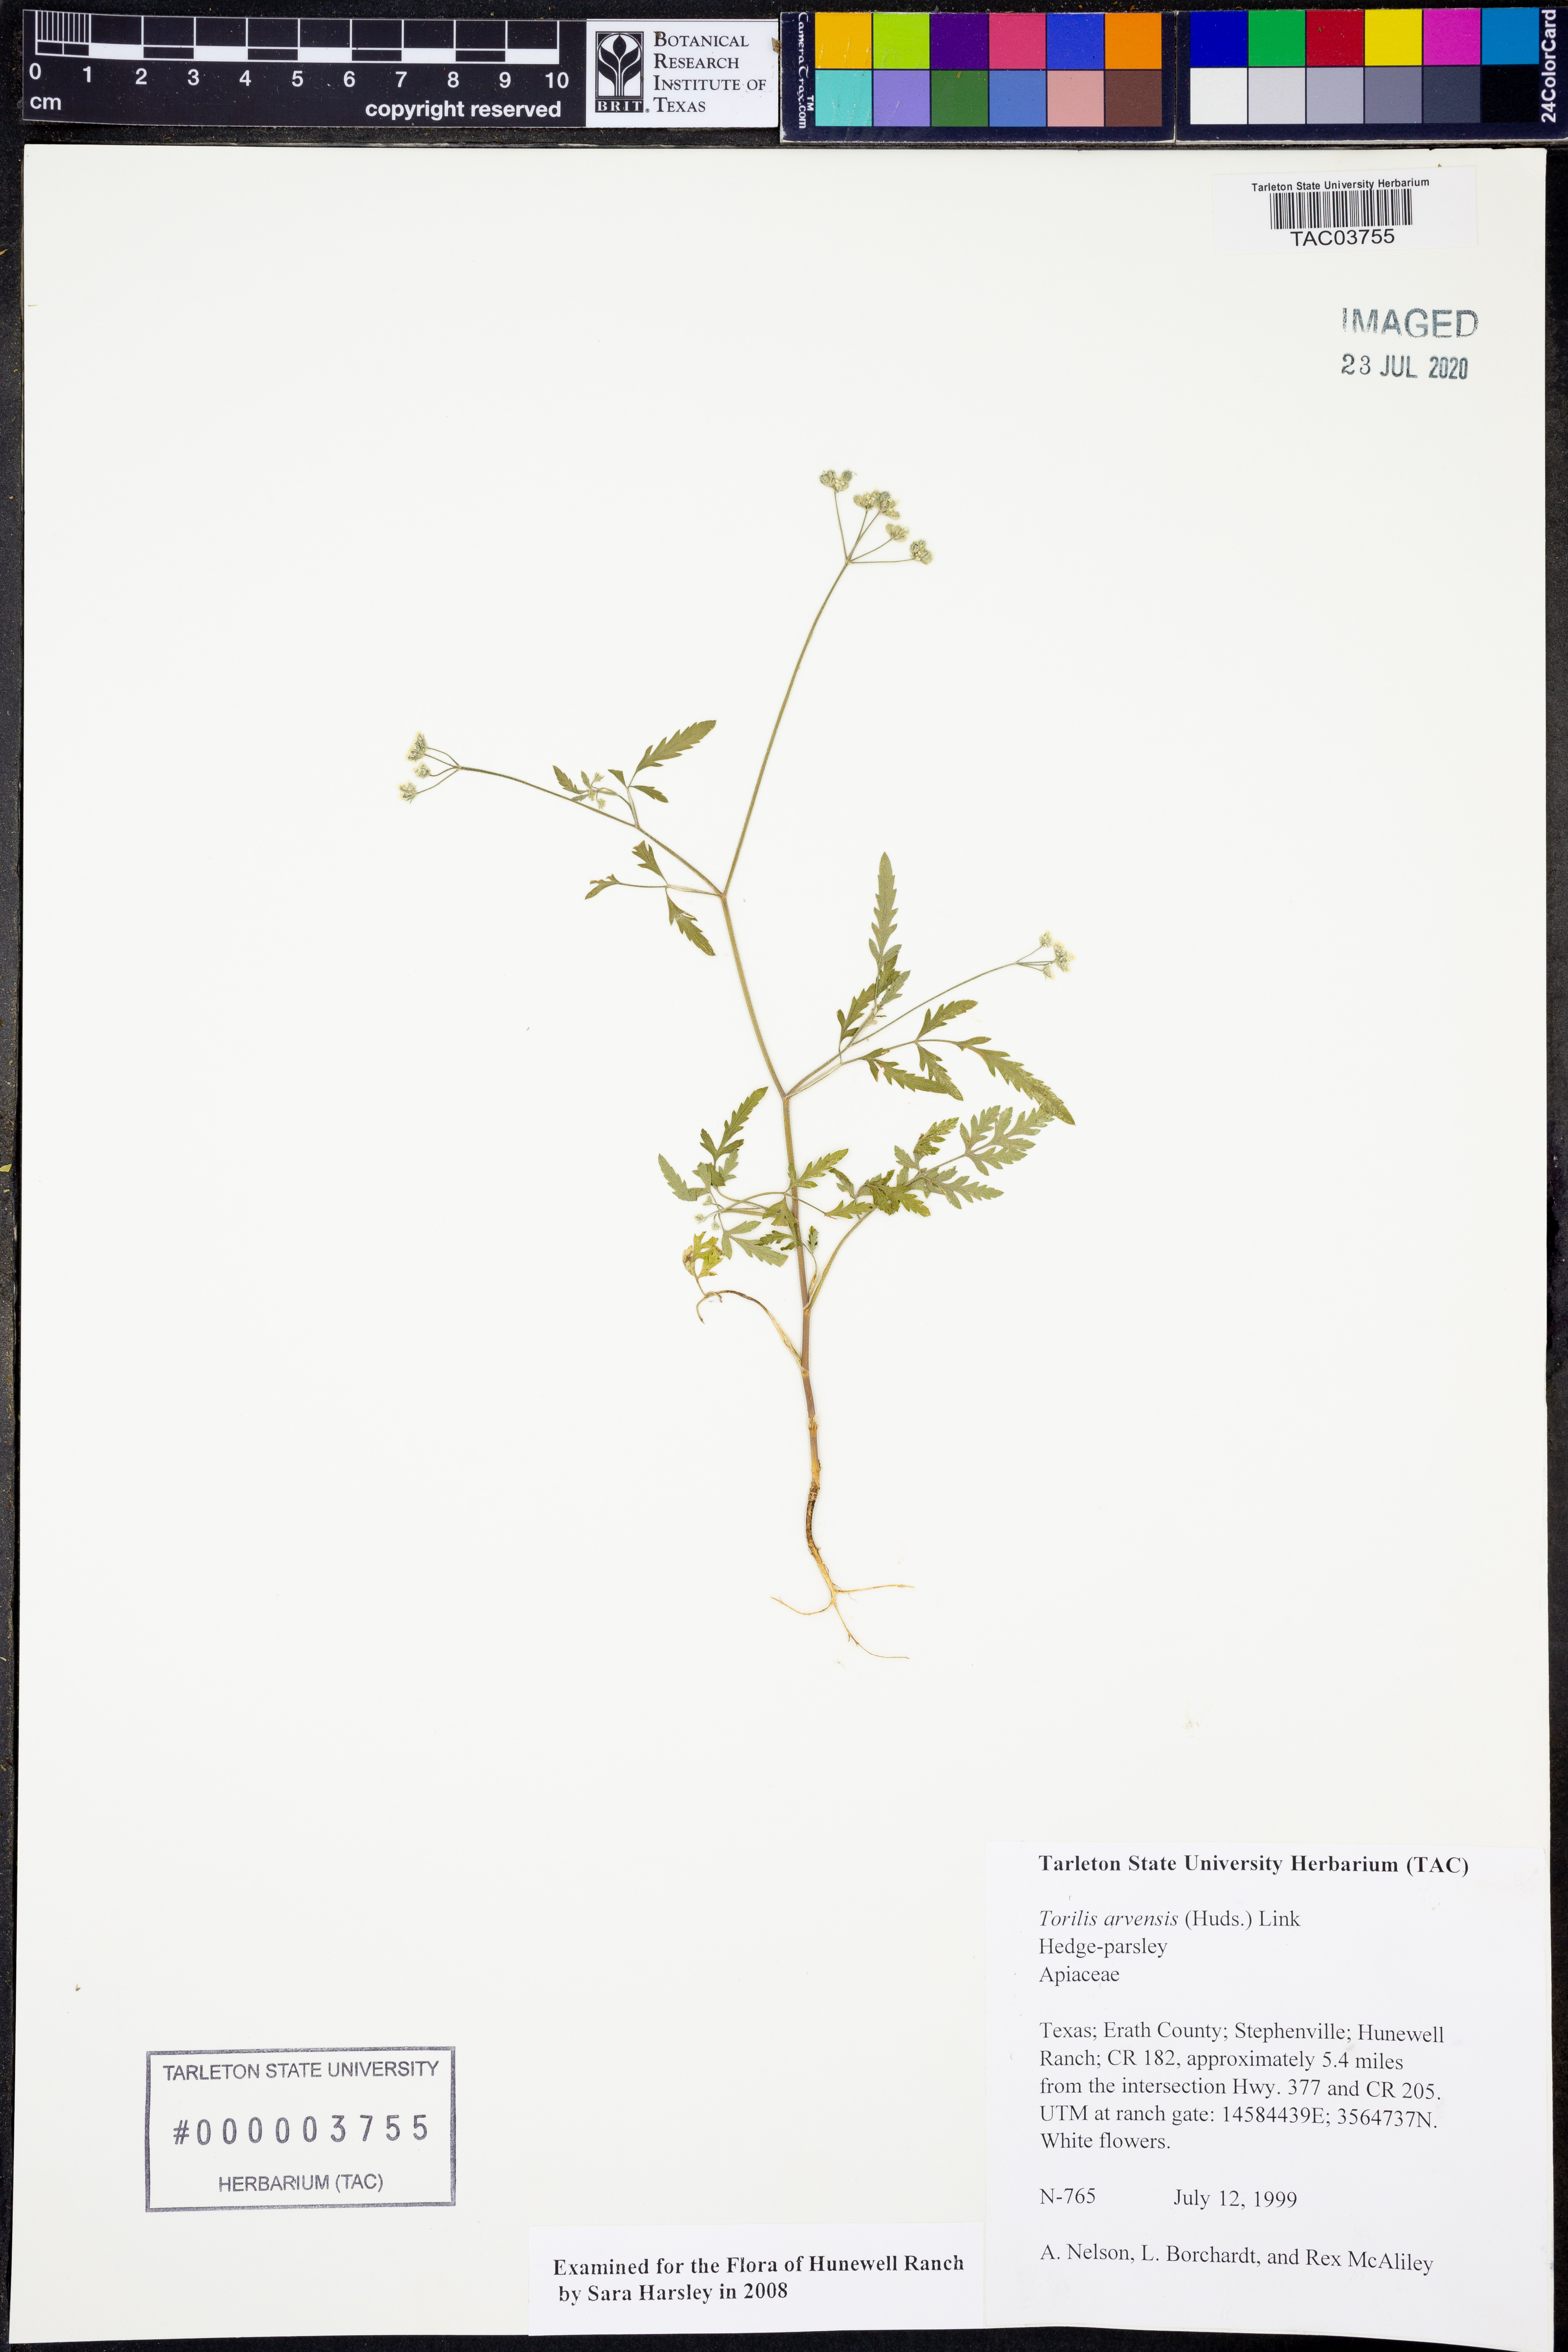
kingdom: Plantae
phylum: Tracheophyta
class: Magnoliopsida
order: Apiales
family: Apiaceae
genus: Torilis
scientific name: Torilis arvensis
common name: Spreading hedge-parsley
